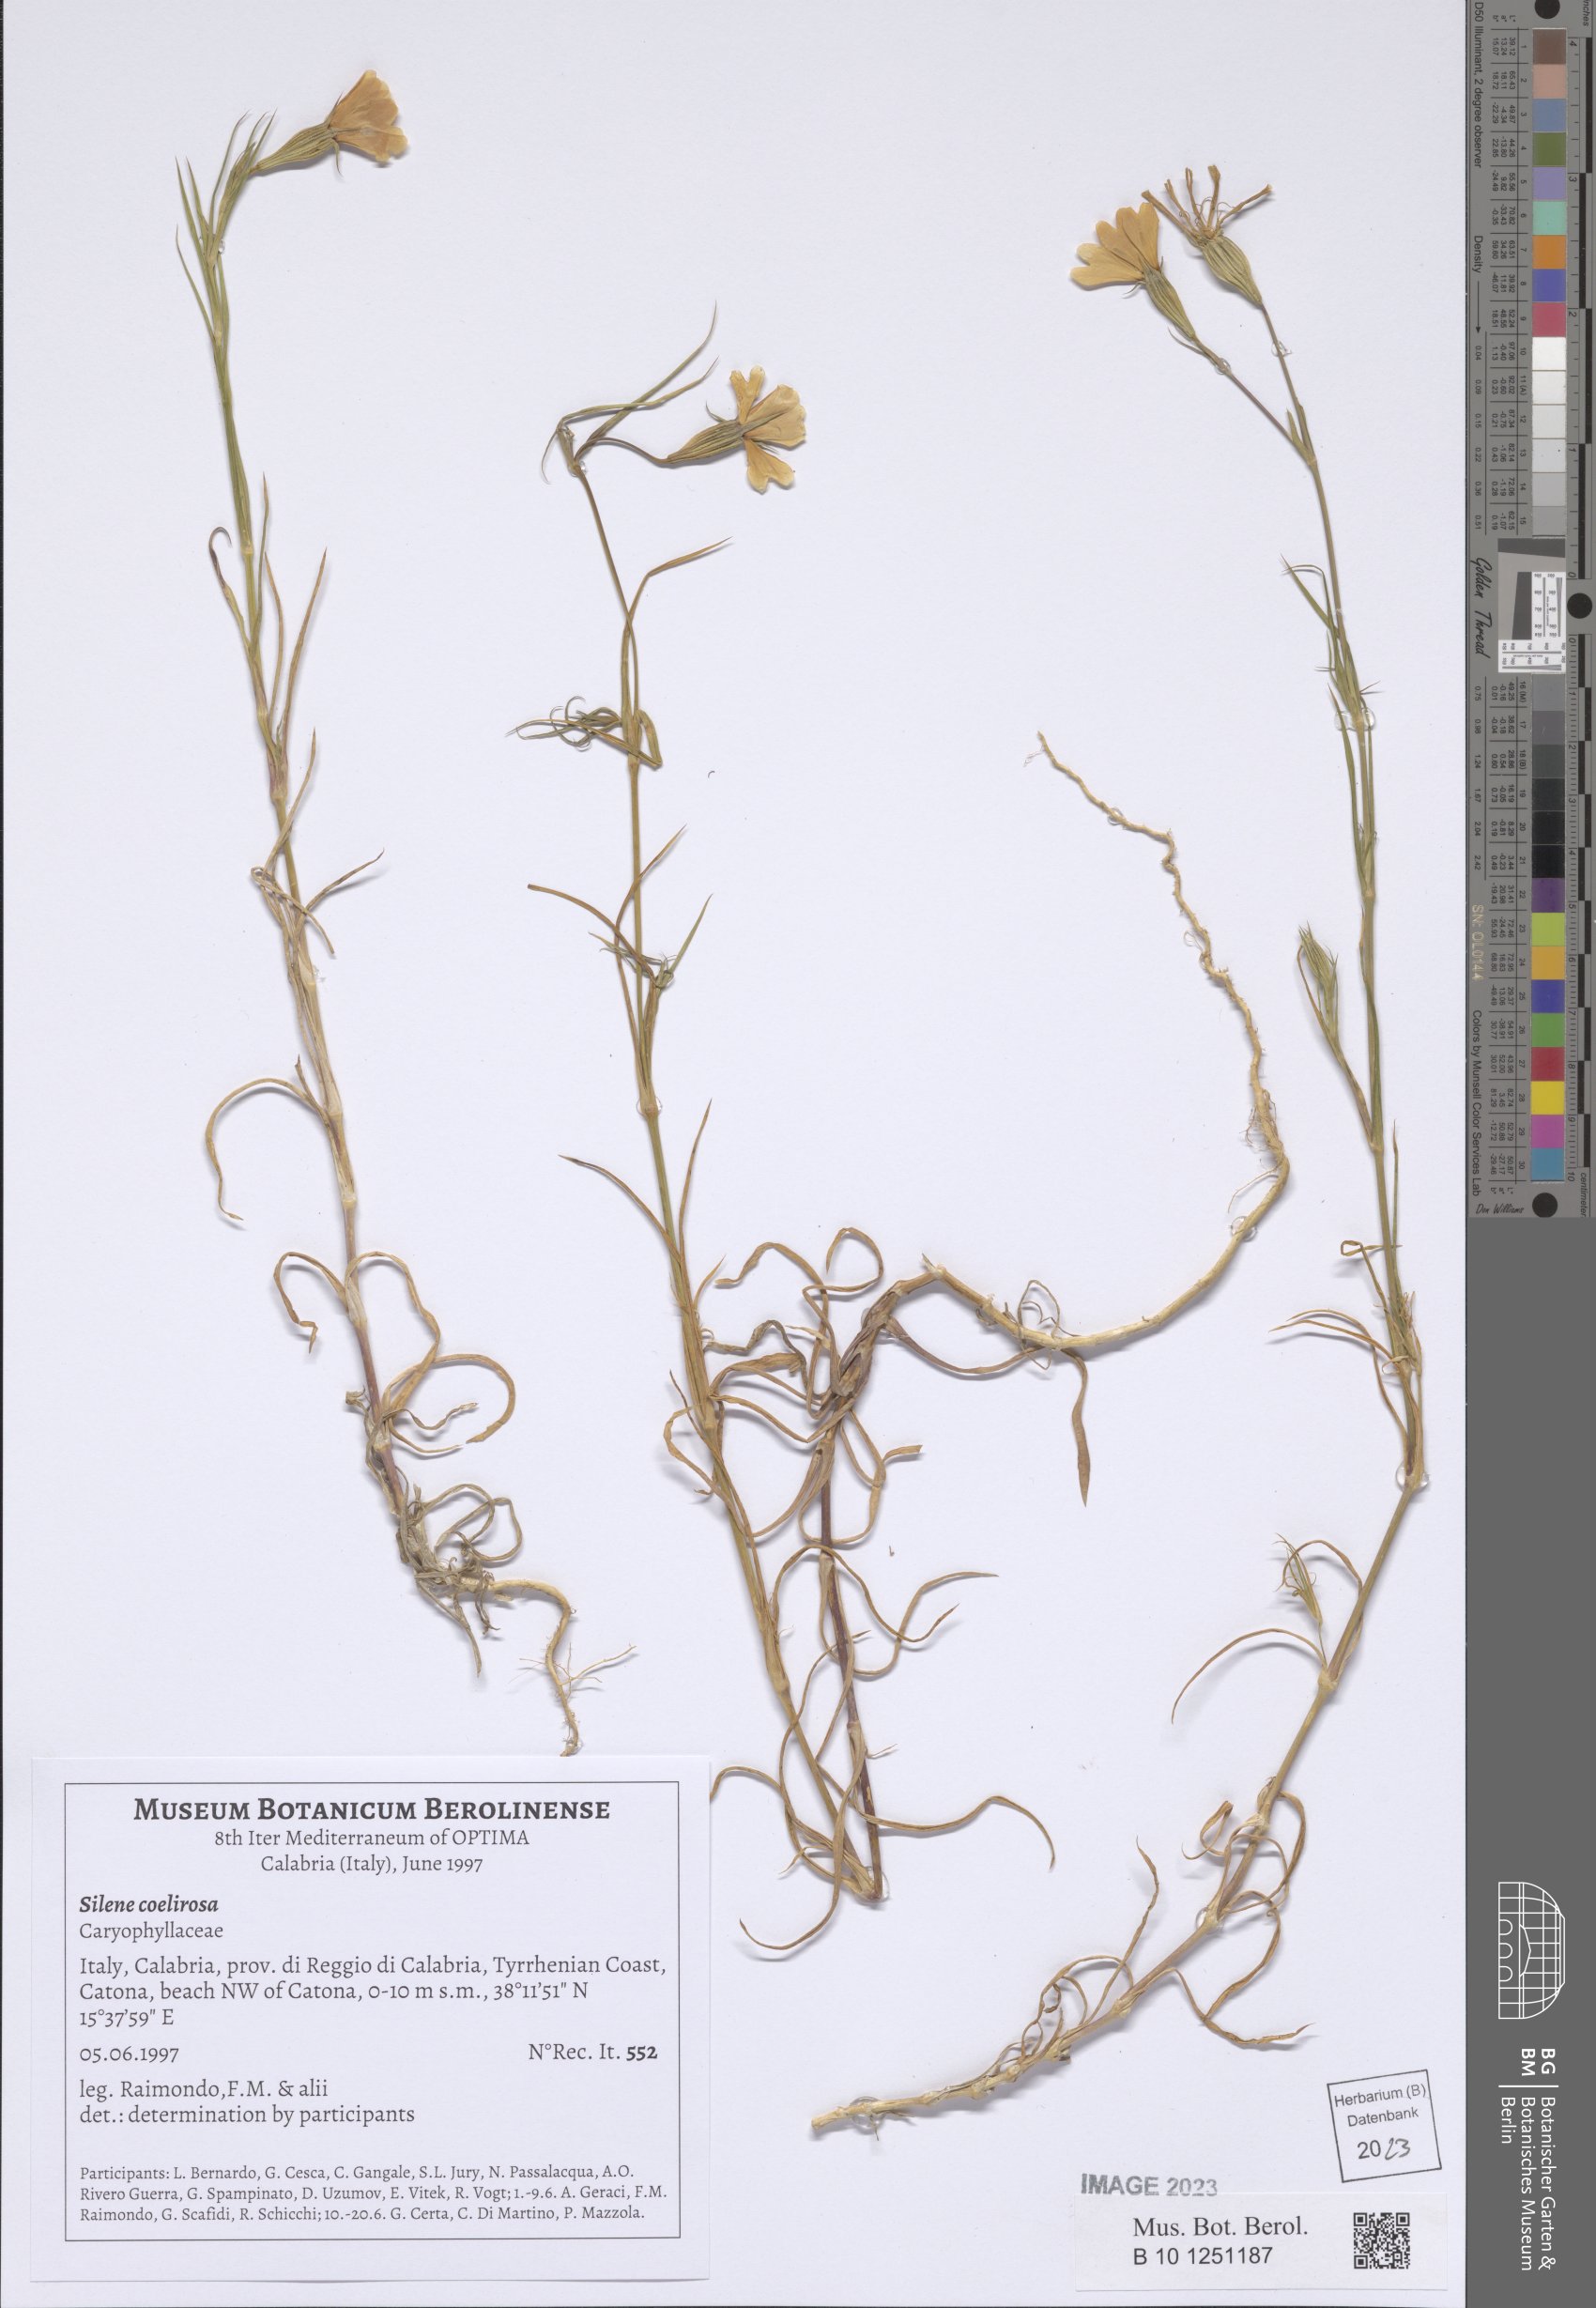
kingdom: Plantae
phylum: Tracheophyta
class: Magnoliopsida
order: Caryophyllales
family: Caryophyllaceae
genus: Eudianthe
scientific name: Eudianthe coeli-rosa
